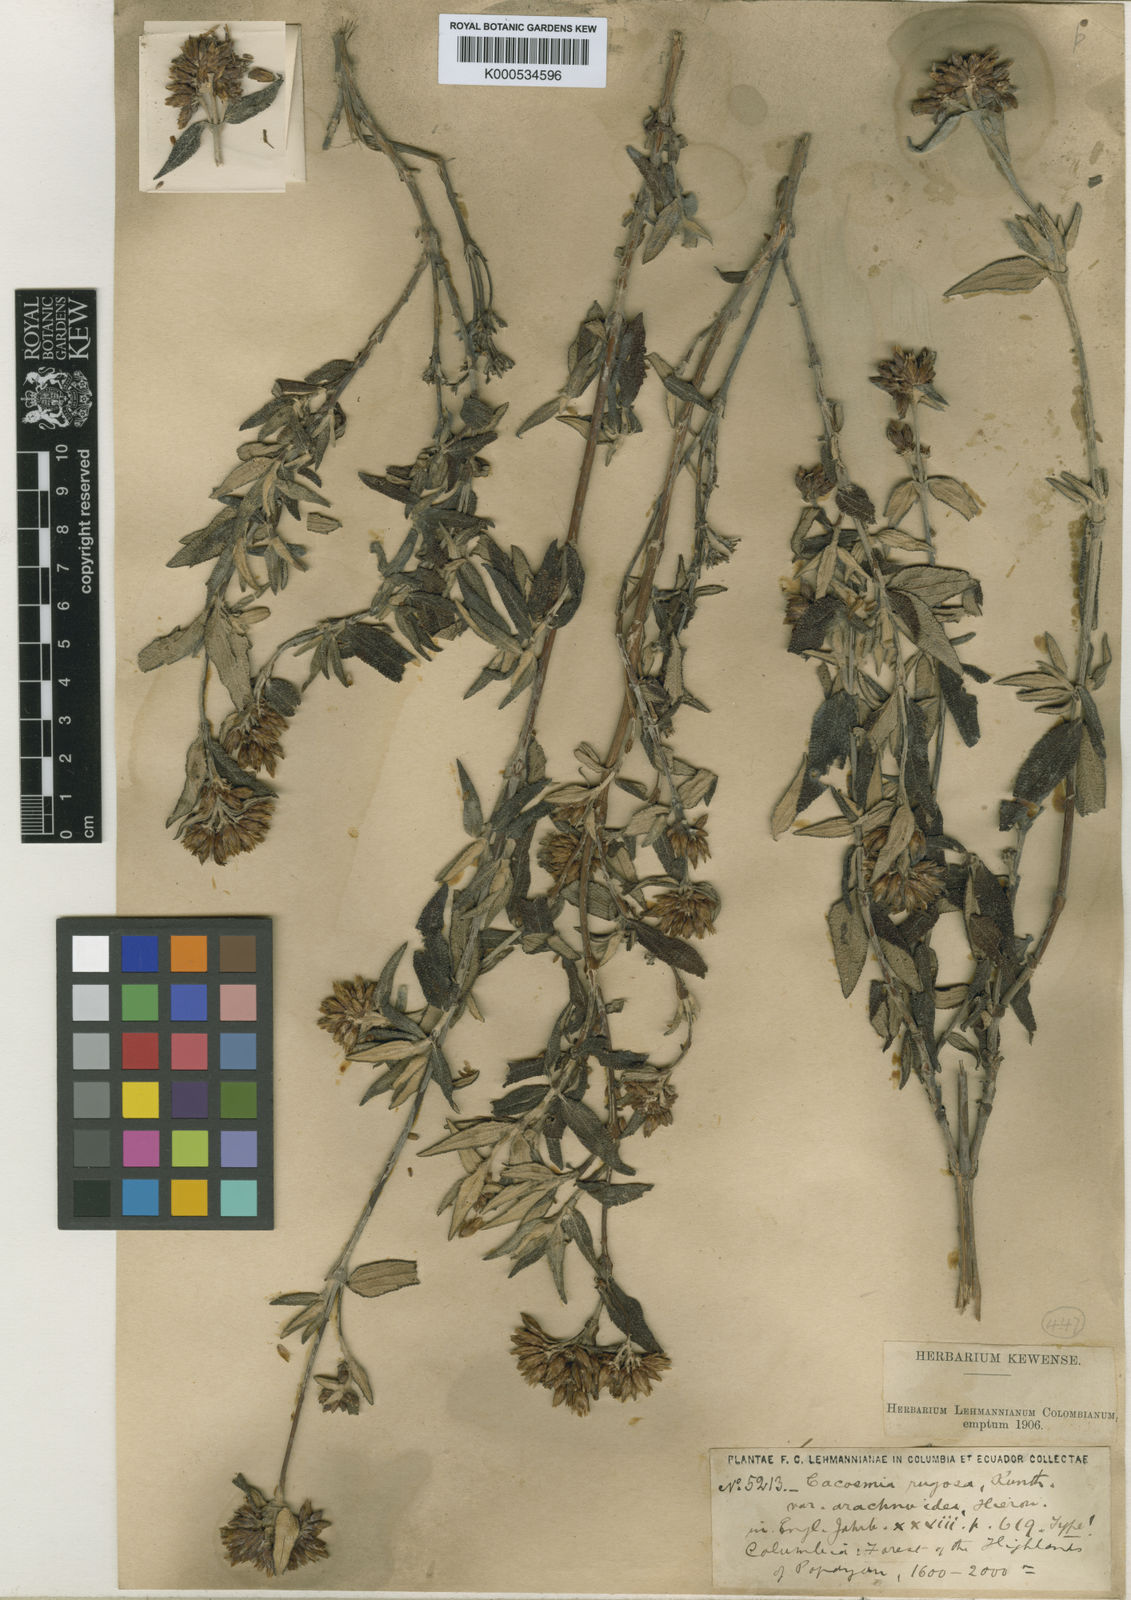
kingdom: Plantae
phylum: Tracheophyta
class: Magnoliopsida
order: Asterales
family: Asteraceae
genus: Cacosmia
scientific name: Cacosmia hieronymi
